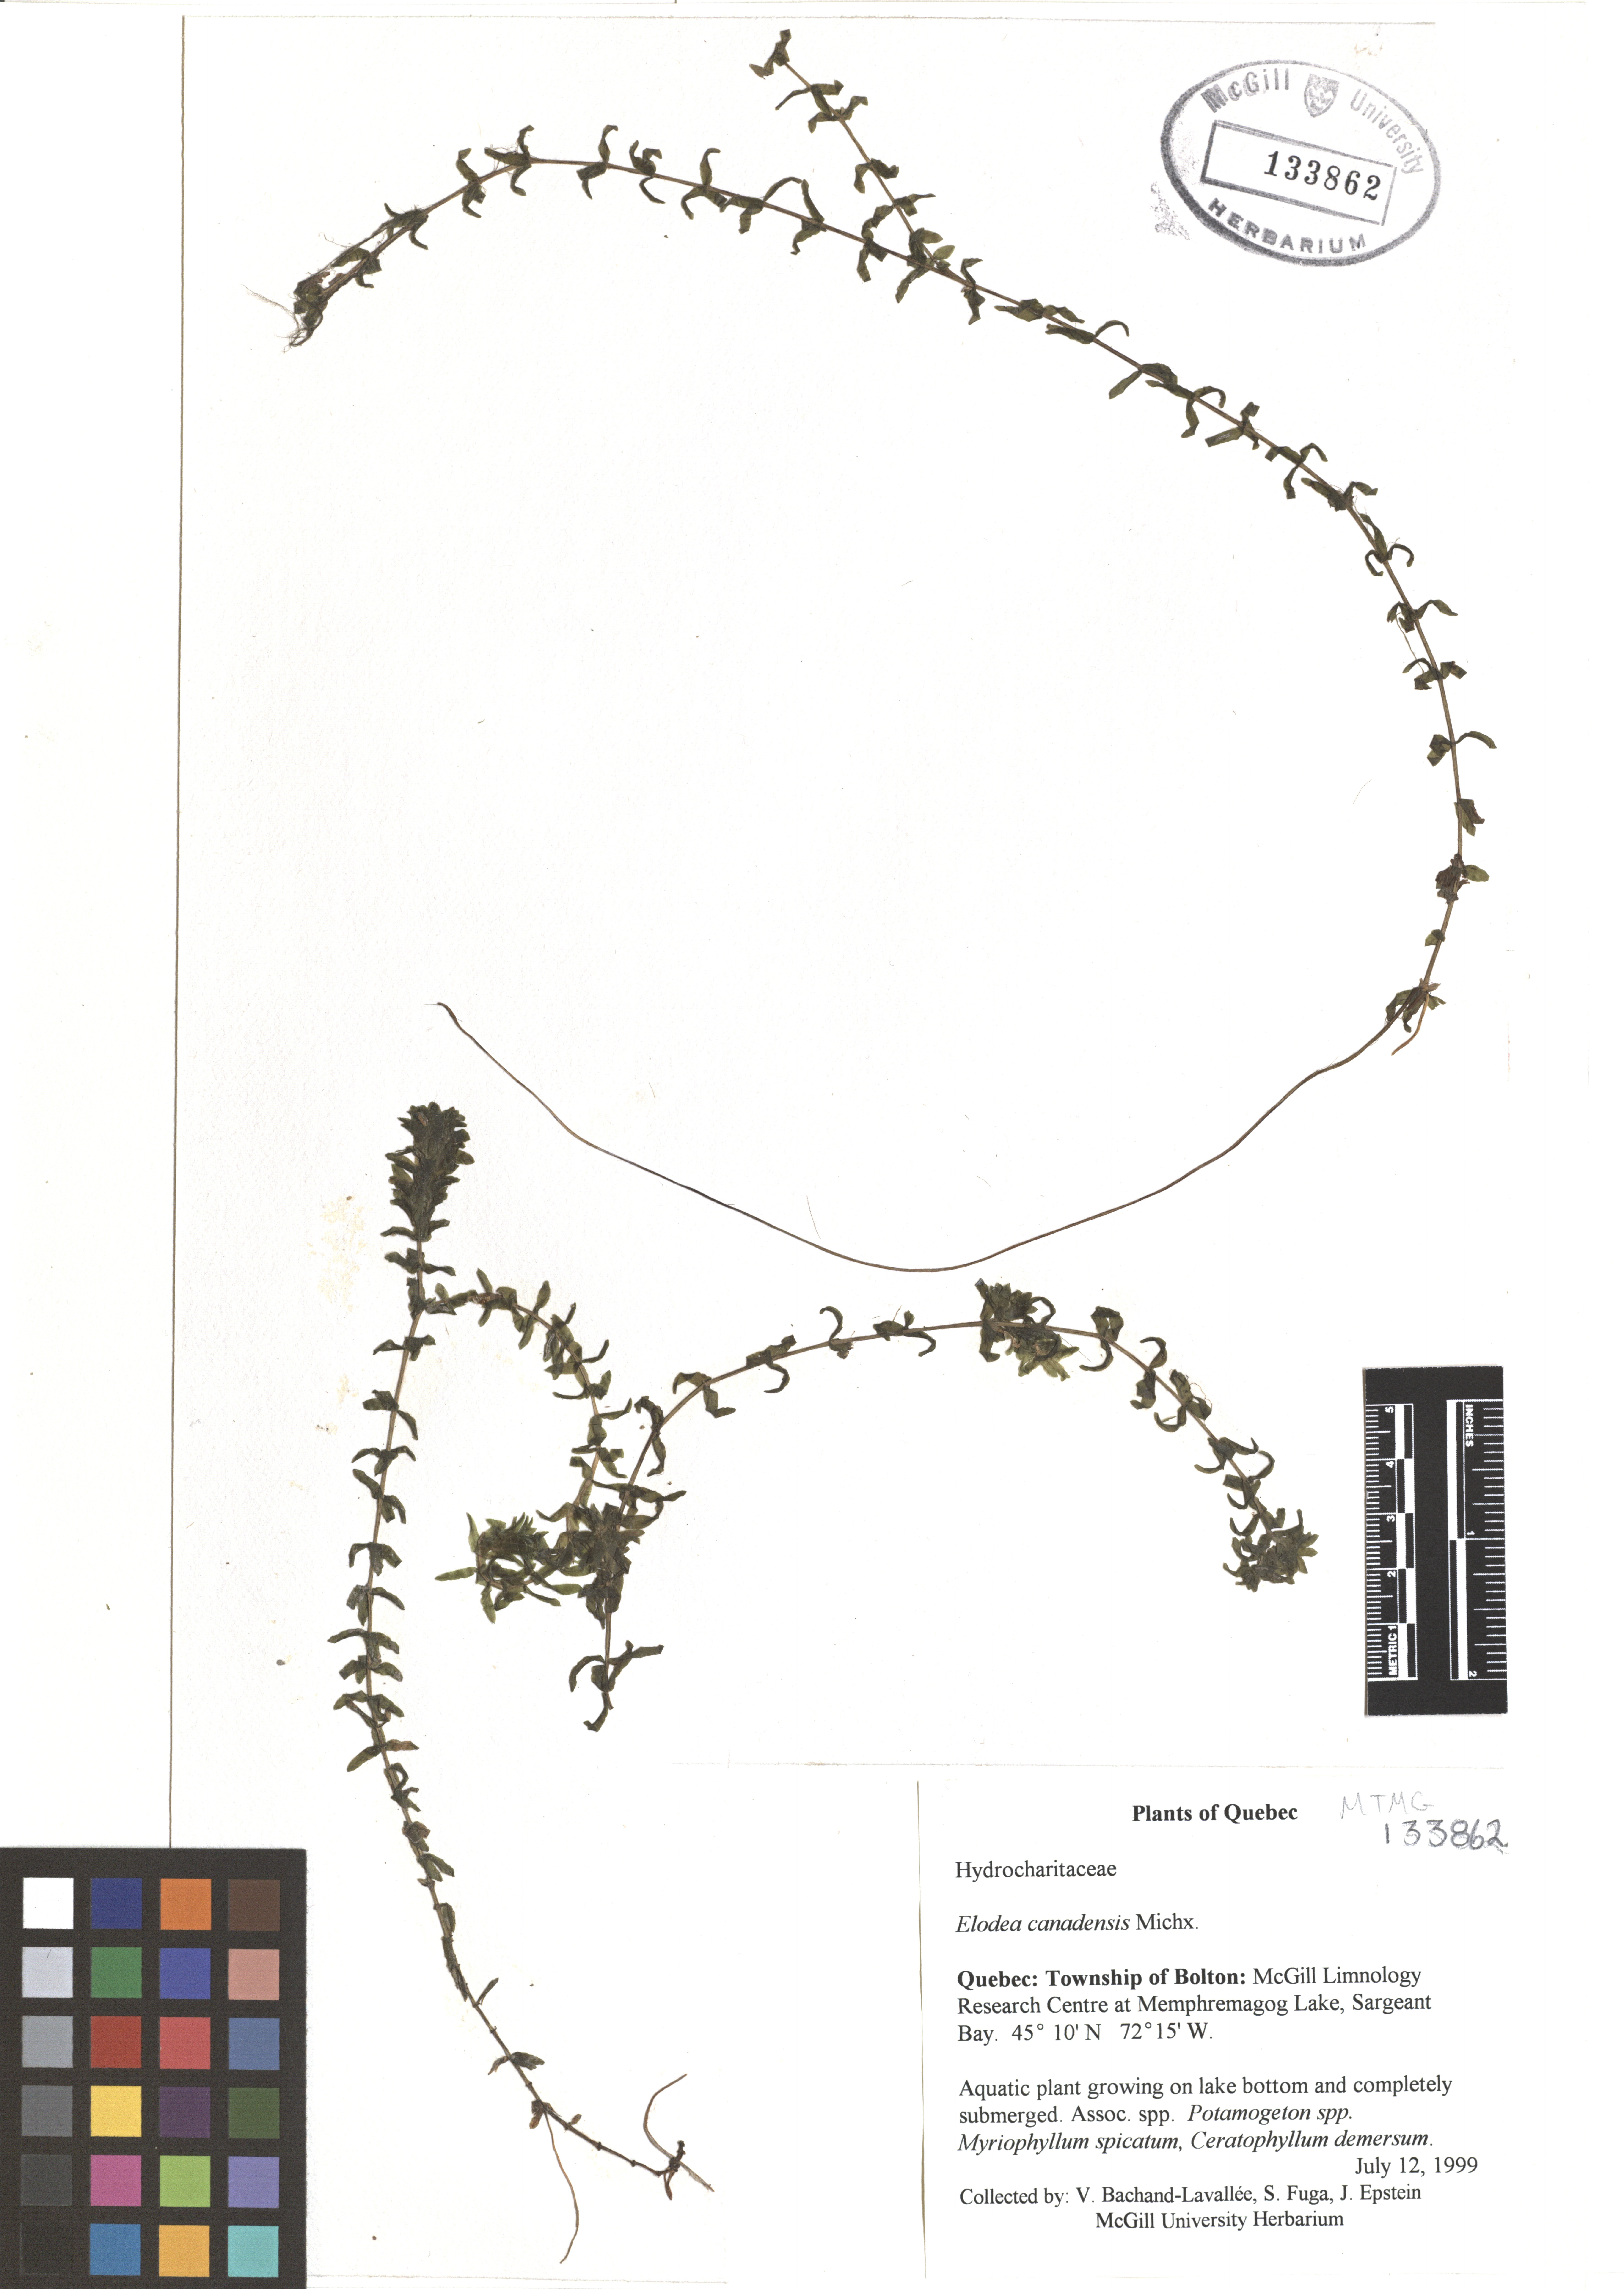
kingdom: Plantae
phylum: Tracheophyta
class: Liliopsida
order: Alismatales
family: Hydrocharitaceae
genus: Elodea
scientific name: Elodea canadensis
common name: Canadian waterweed
